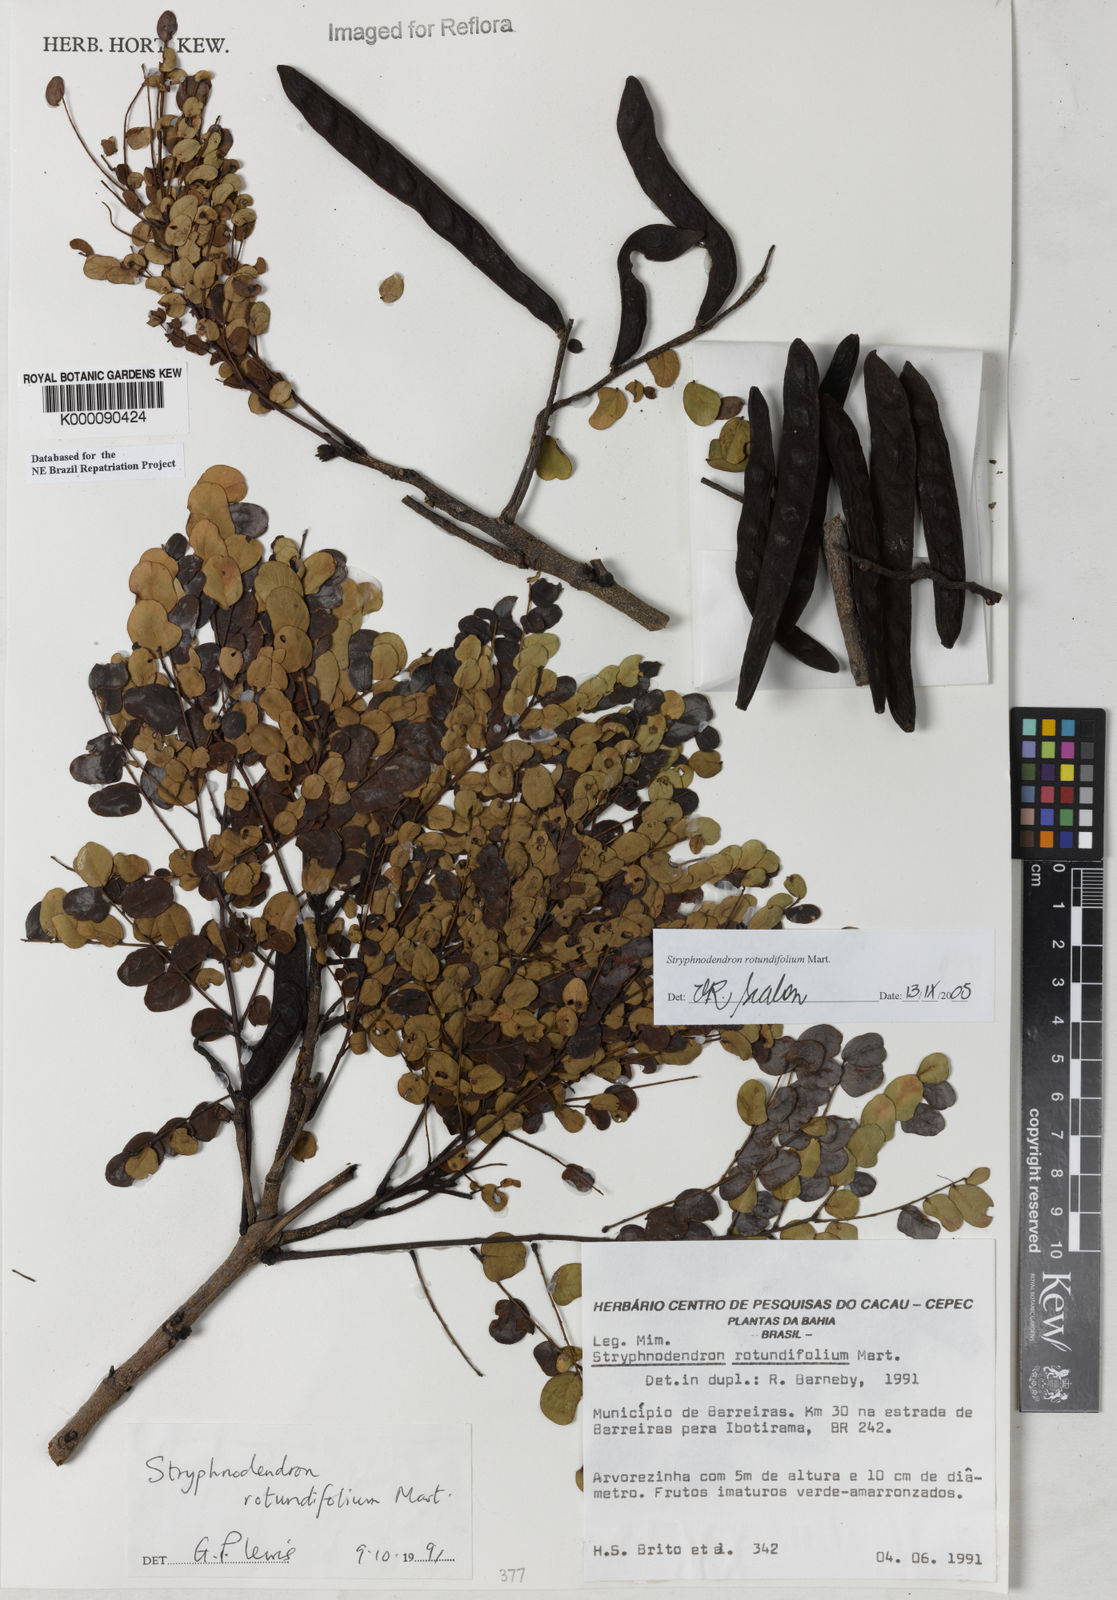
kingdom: Plantae
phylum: Tracheophyta
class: Magnoliopsida
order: Fabales
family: Fabaceae
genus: Stryphnodendron
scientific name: Stryphnodendron rotundifolium
